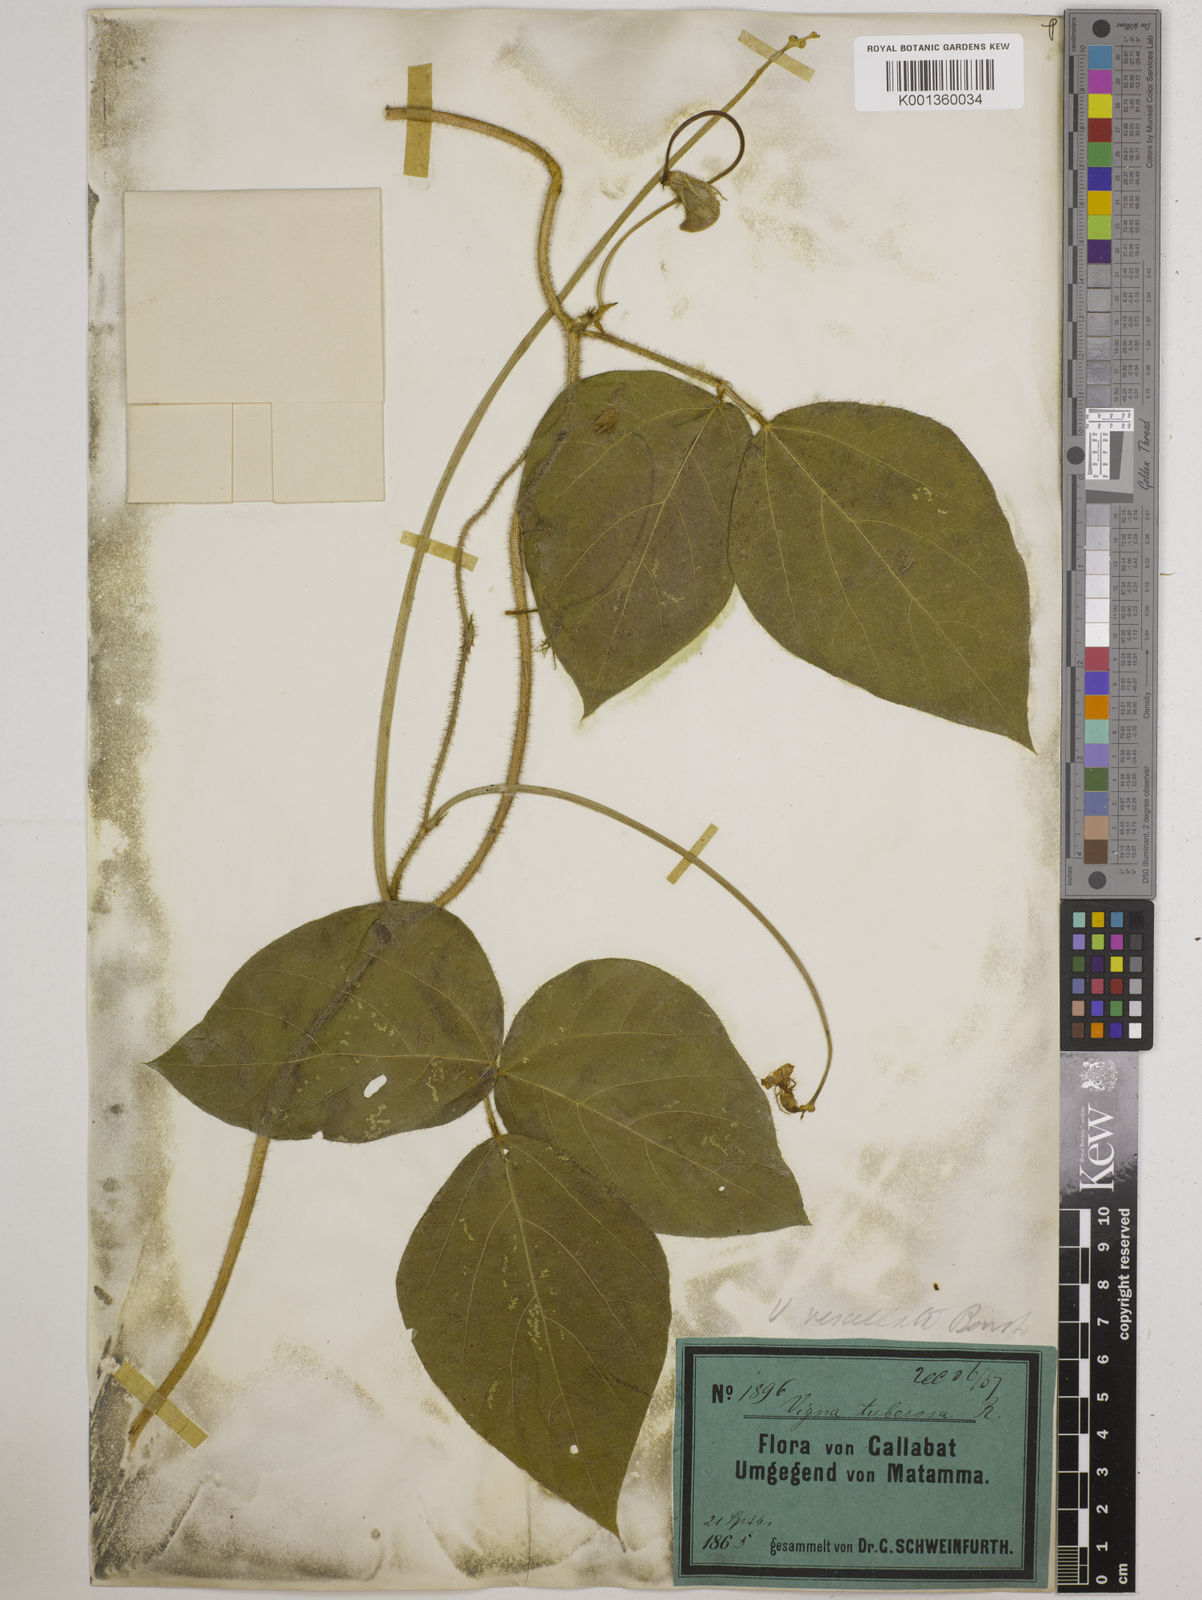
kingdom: Plantae
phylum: Tracheophyta
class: Magnoliopsida
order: Fabales
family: Fabaceae
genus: Vigna
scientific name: Vigna vexillata
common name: Zombi pea
